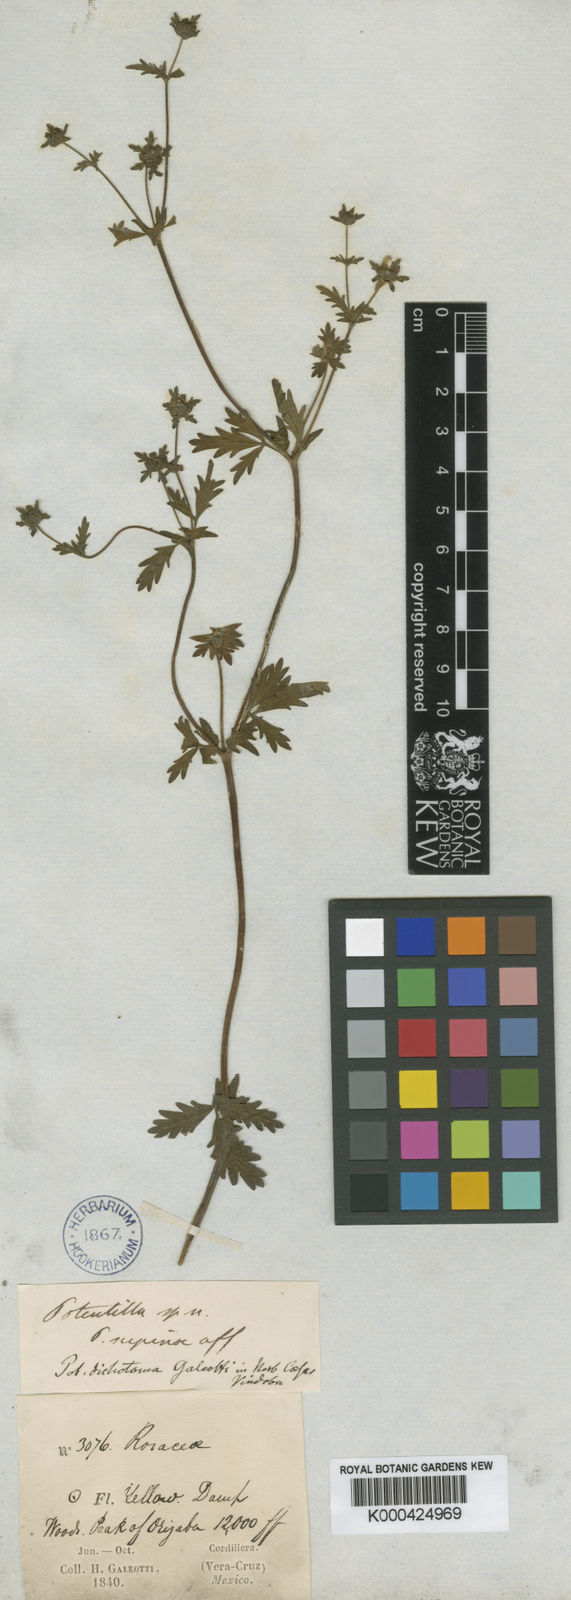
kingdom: Plantae
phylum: Tracheophyta
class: Magnoliopsida
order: Rosales
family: Rosaceae
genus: Potentilla
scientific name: Potentilla heterosepala
